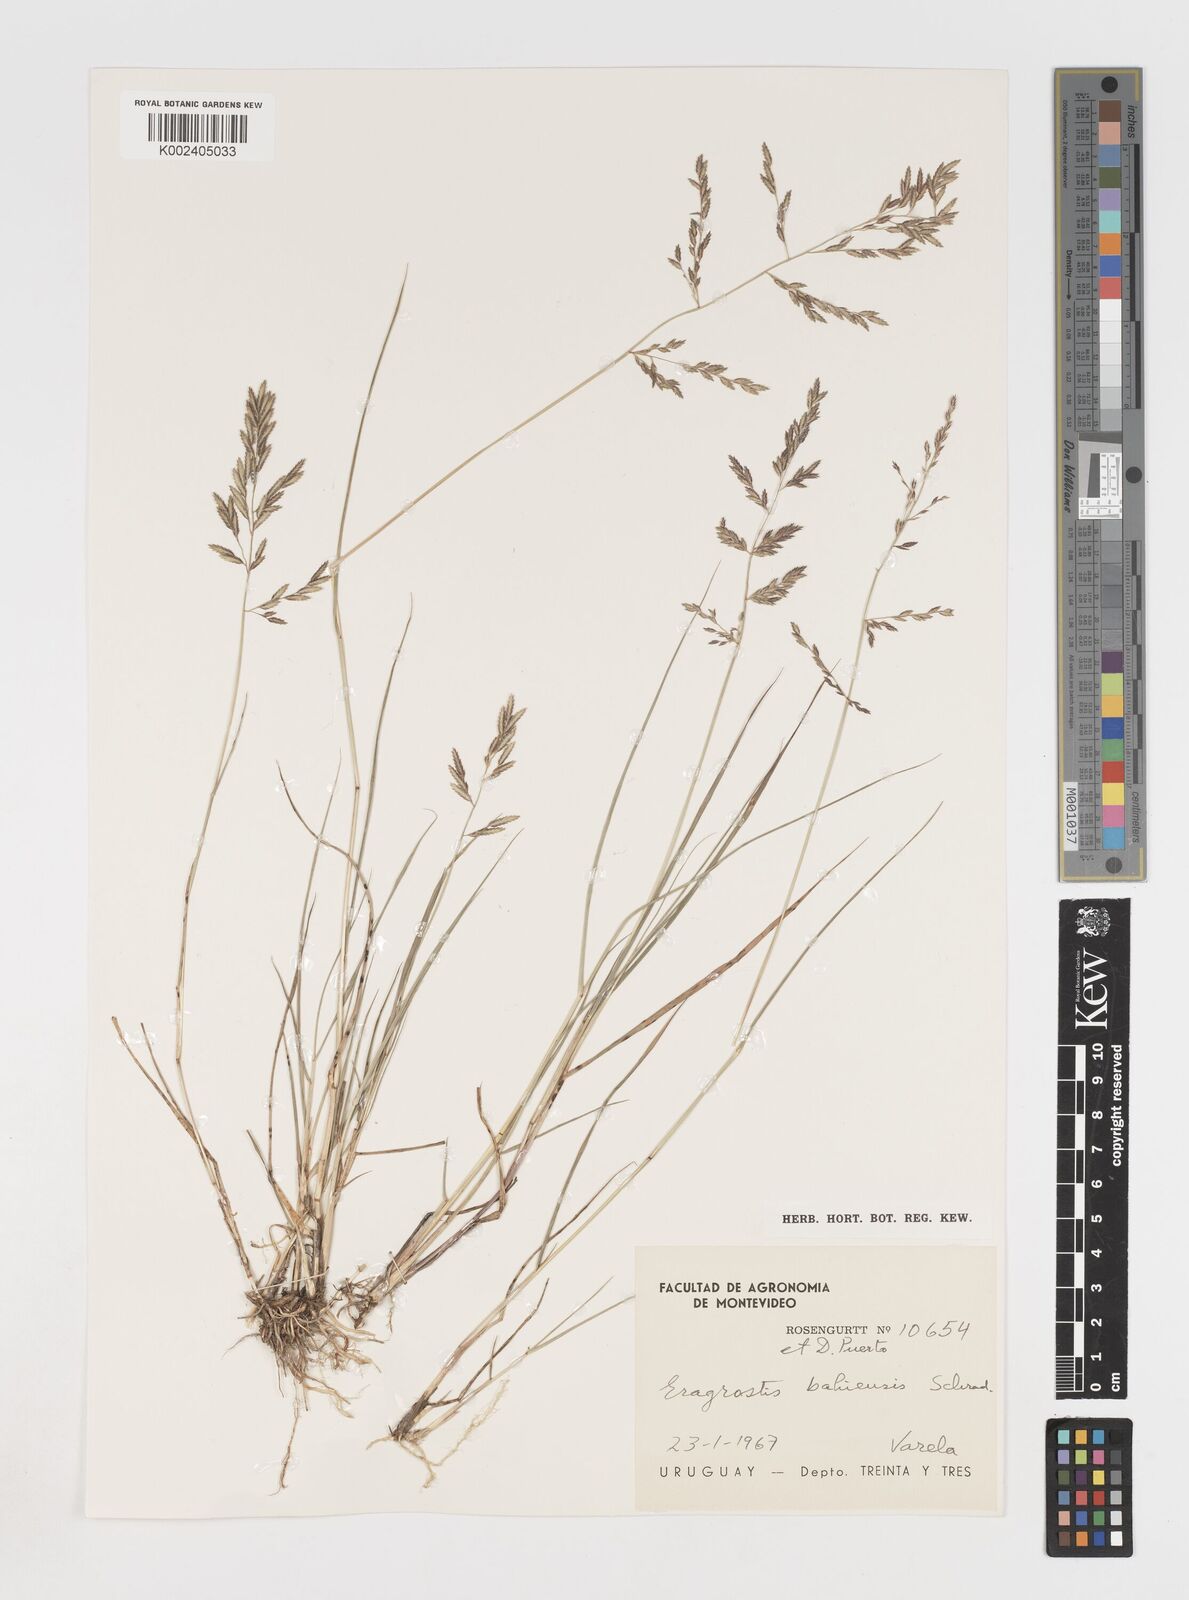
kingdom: Plantae
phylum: Tracheophyta
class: Liliopsida
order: Poales
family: Poaceae
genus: Eragrostis
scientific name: Eragrostis
